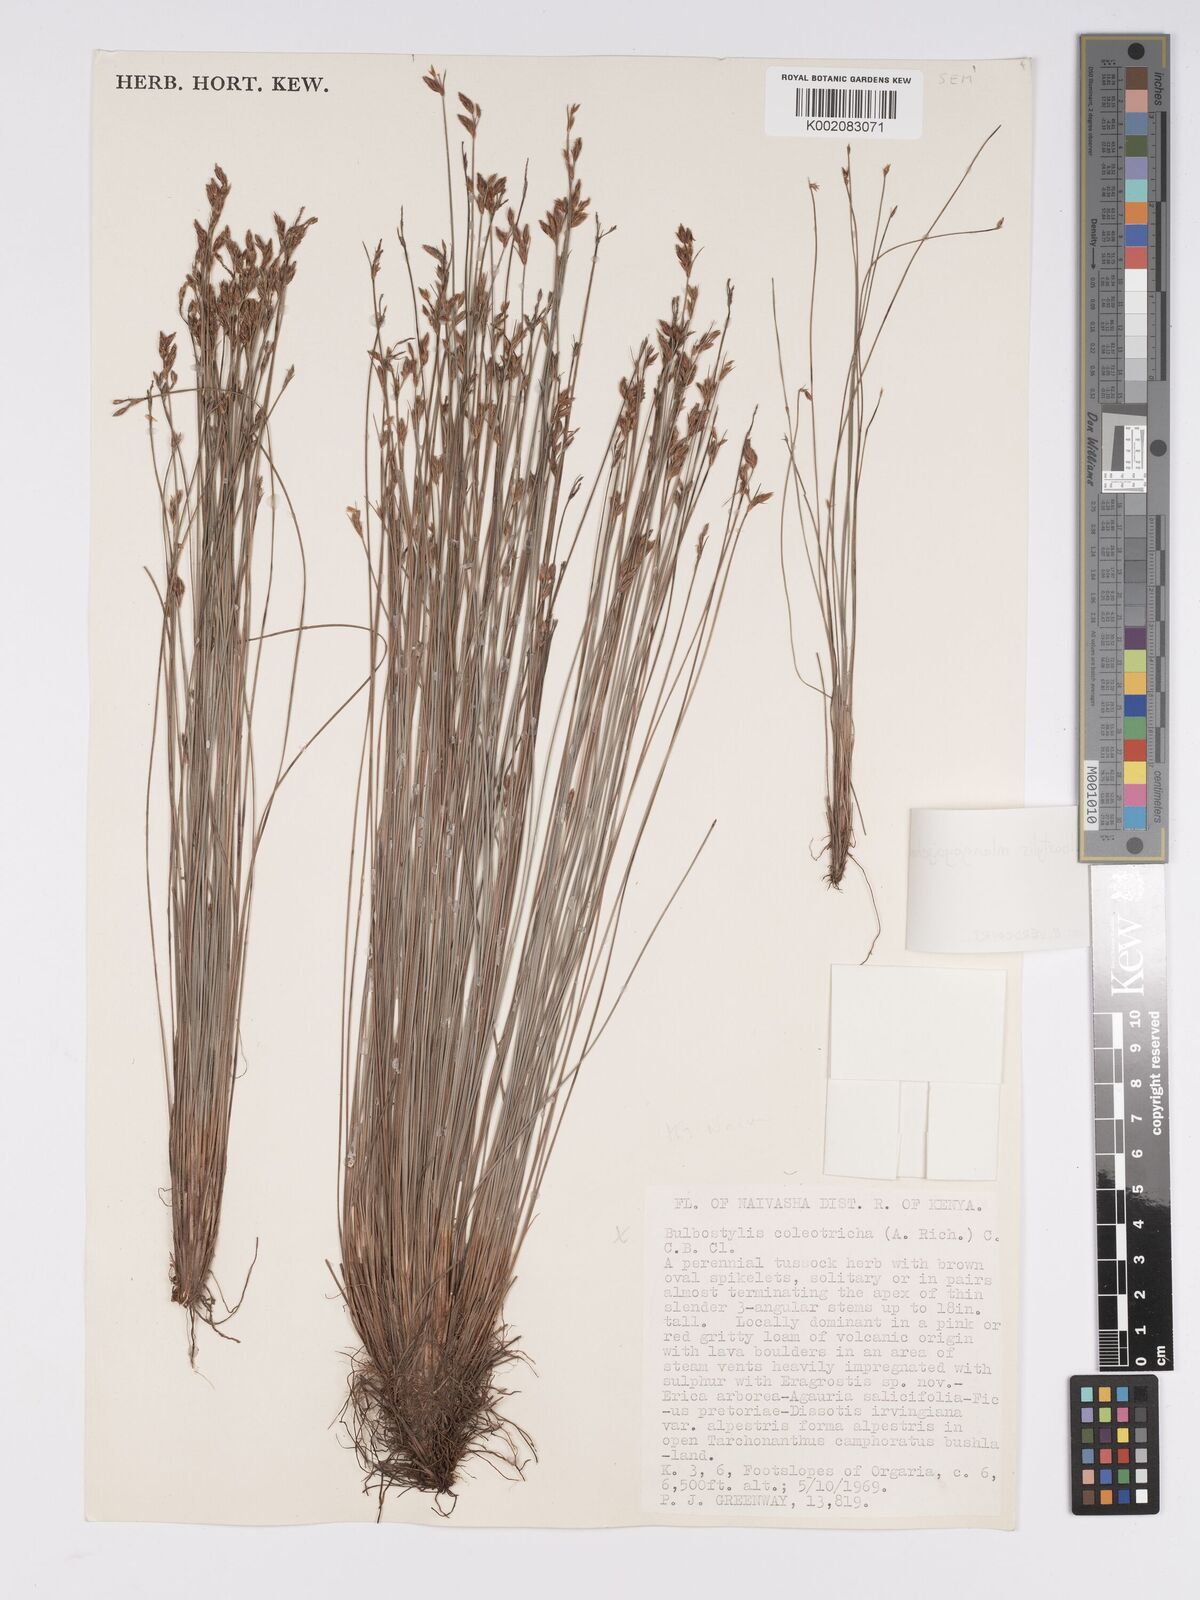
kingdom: Plantae
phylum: Tracheophyta
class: Liliopsida
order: Poales
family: Cyperaceae
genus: Bulbostylis
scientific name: Bulbostylis mlangoyajehenum
